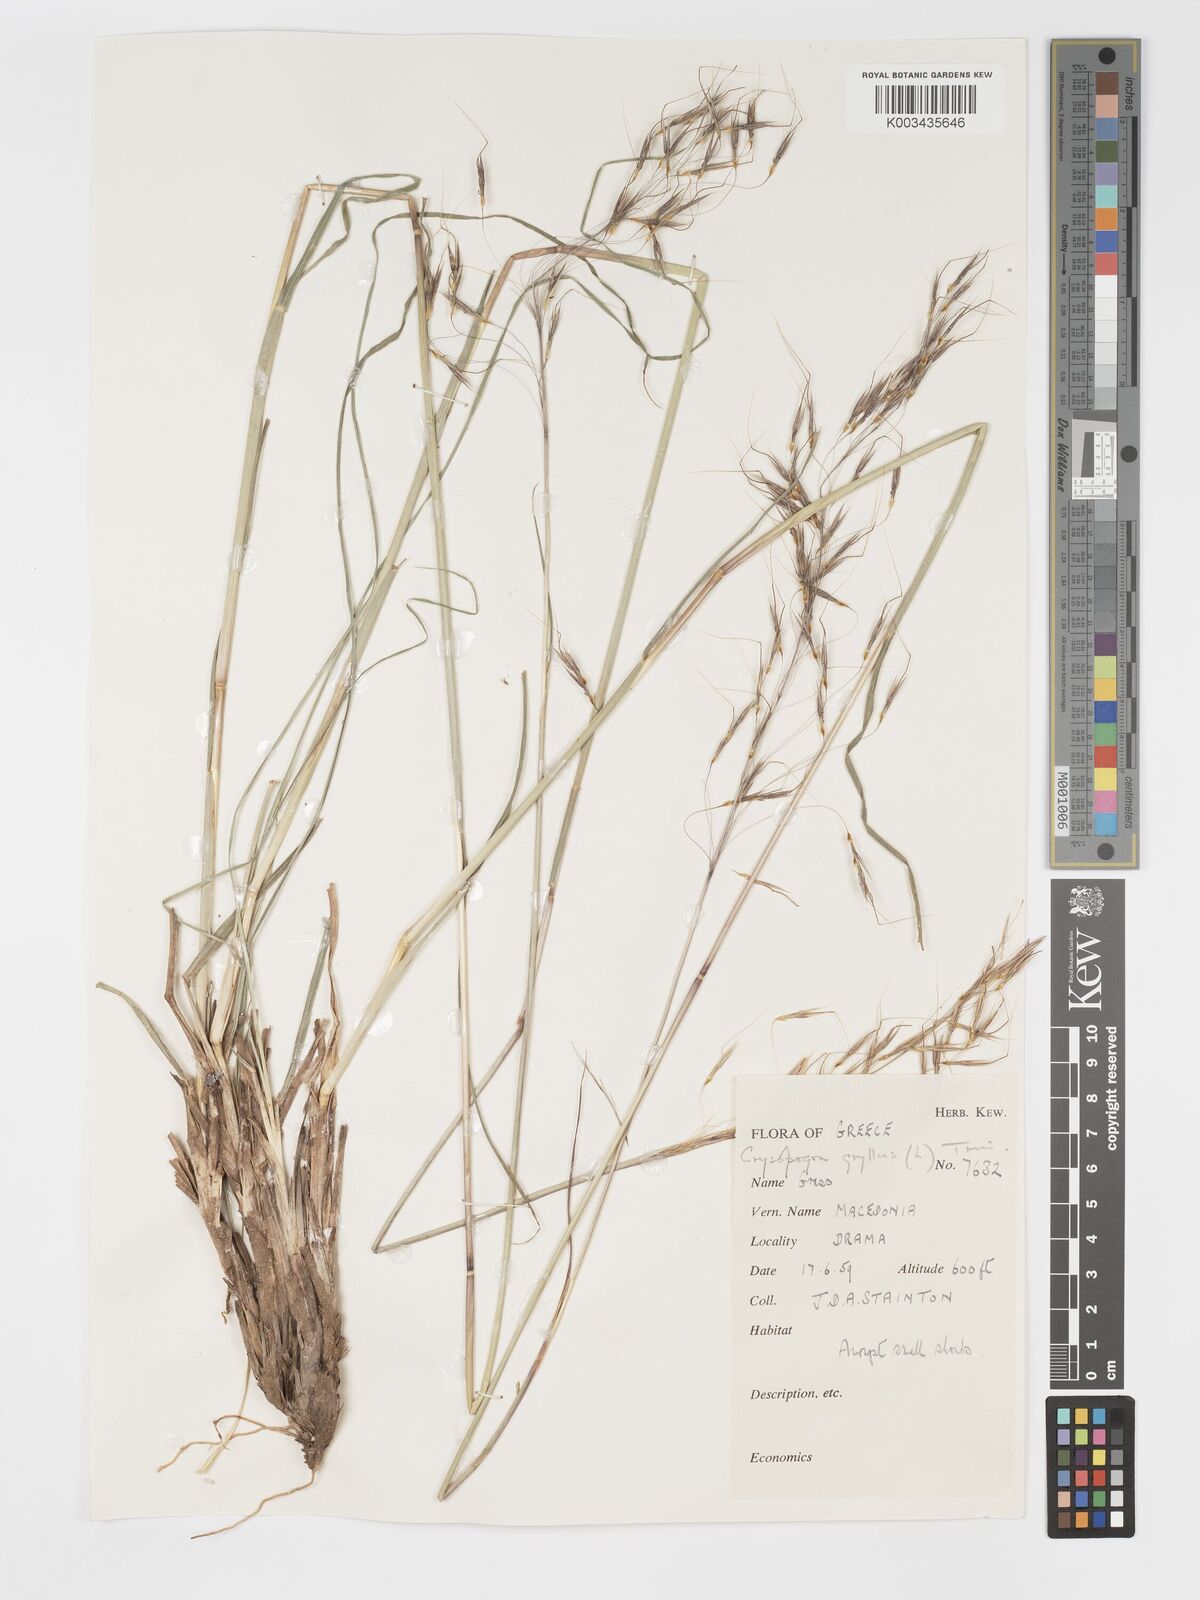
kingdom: Plantae
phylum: Tracheophyta
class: Liliopsida
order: Poales
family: Poaceae
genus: Chrysopogon
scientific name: Chrysopogon gryllus
